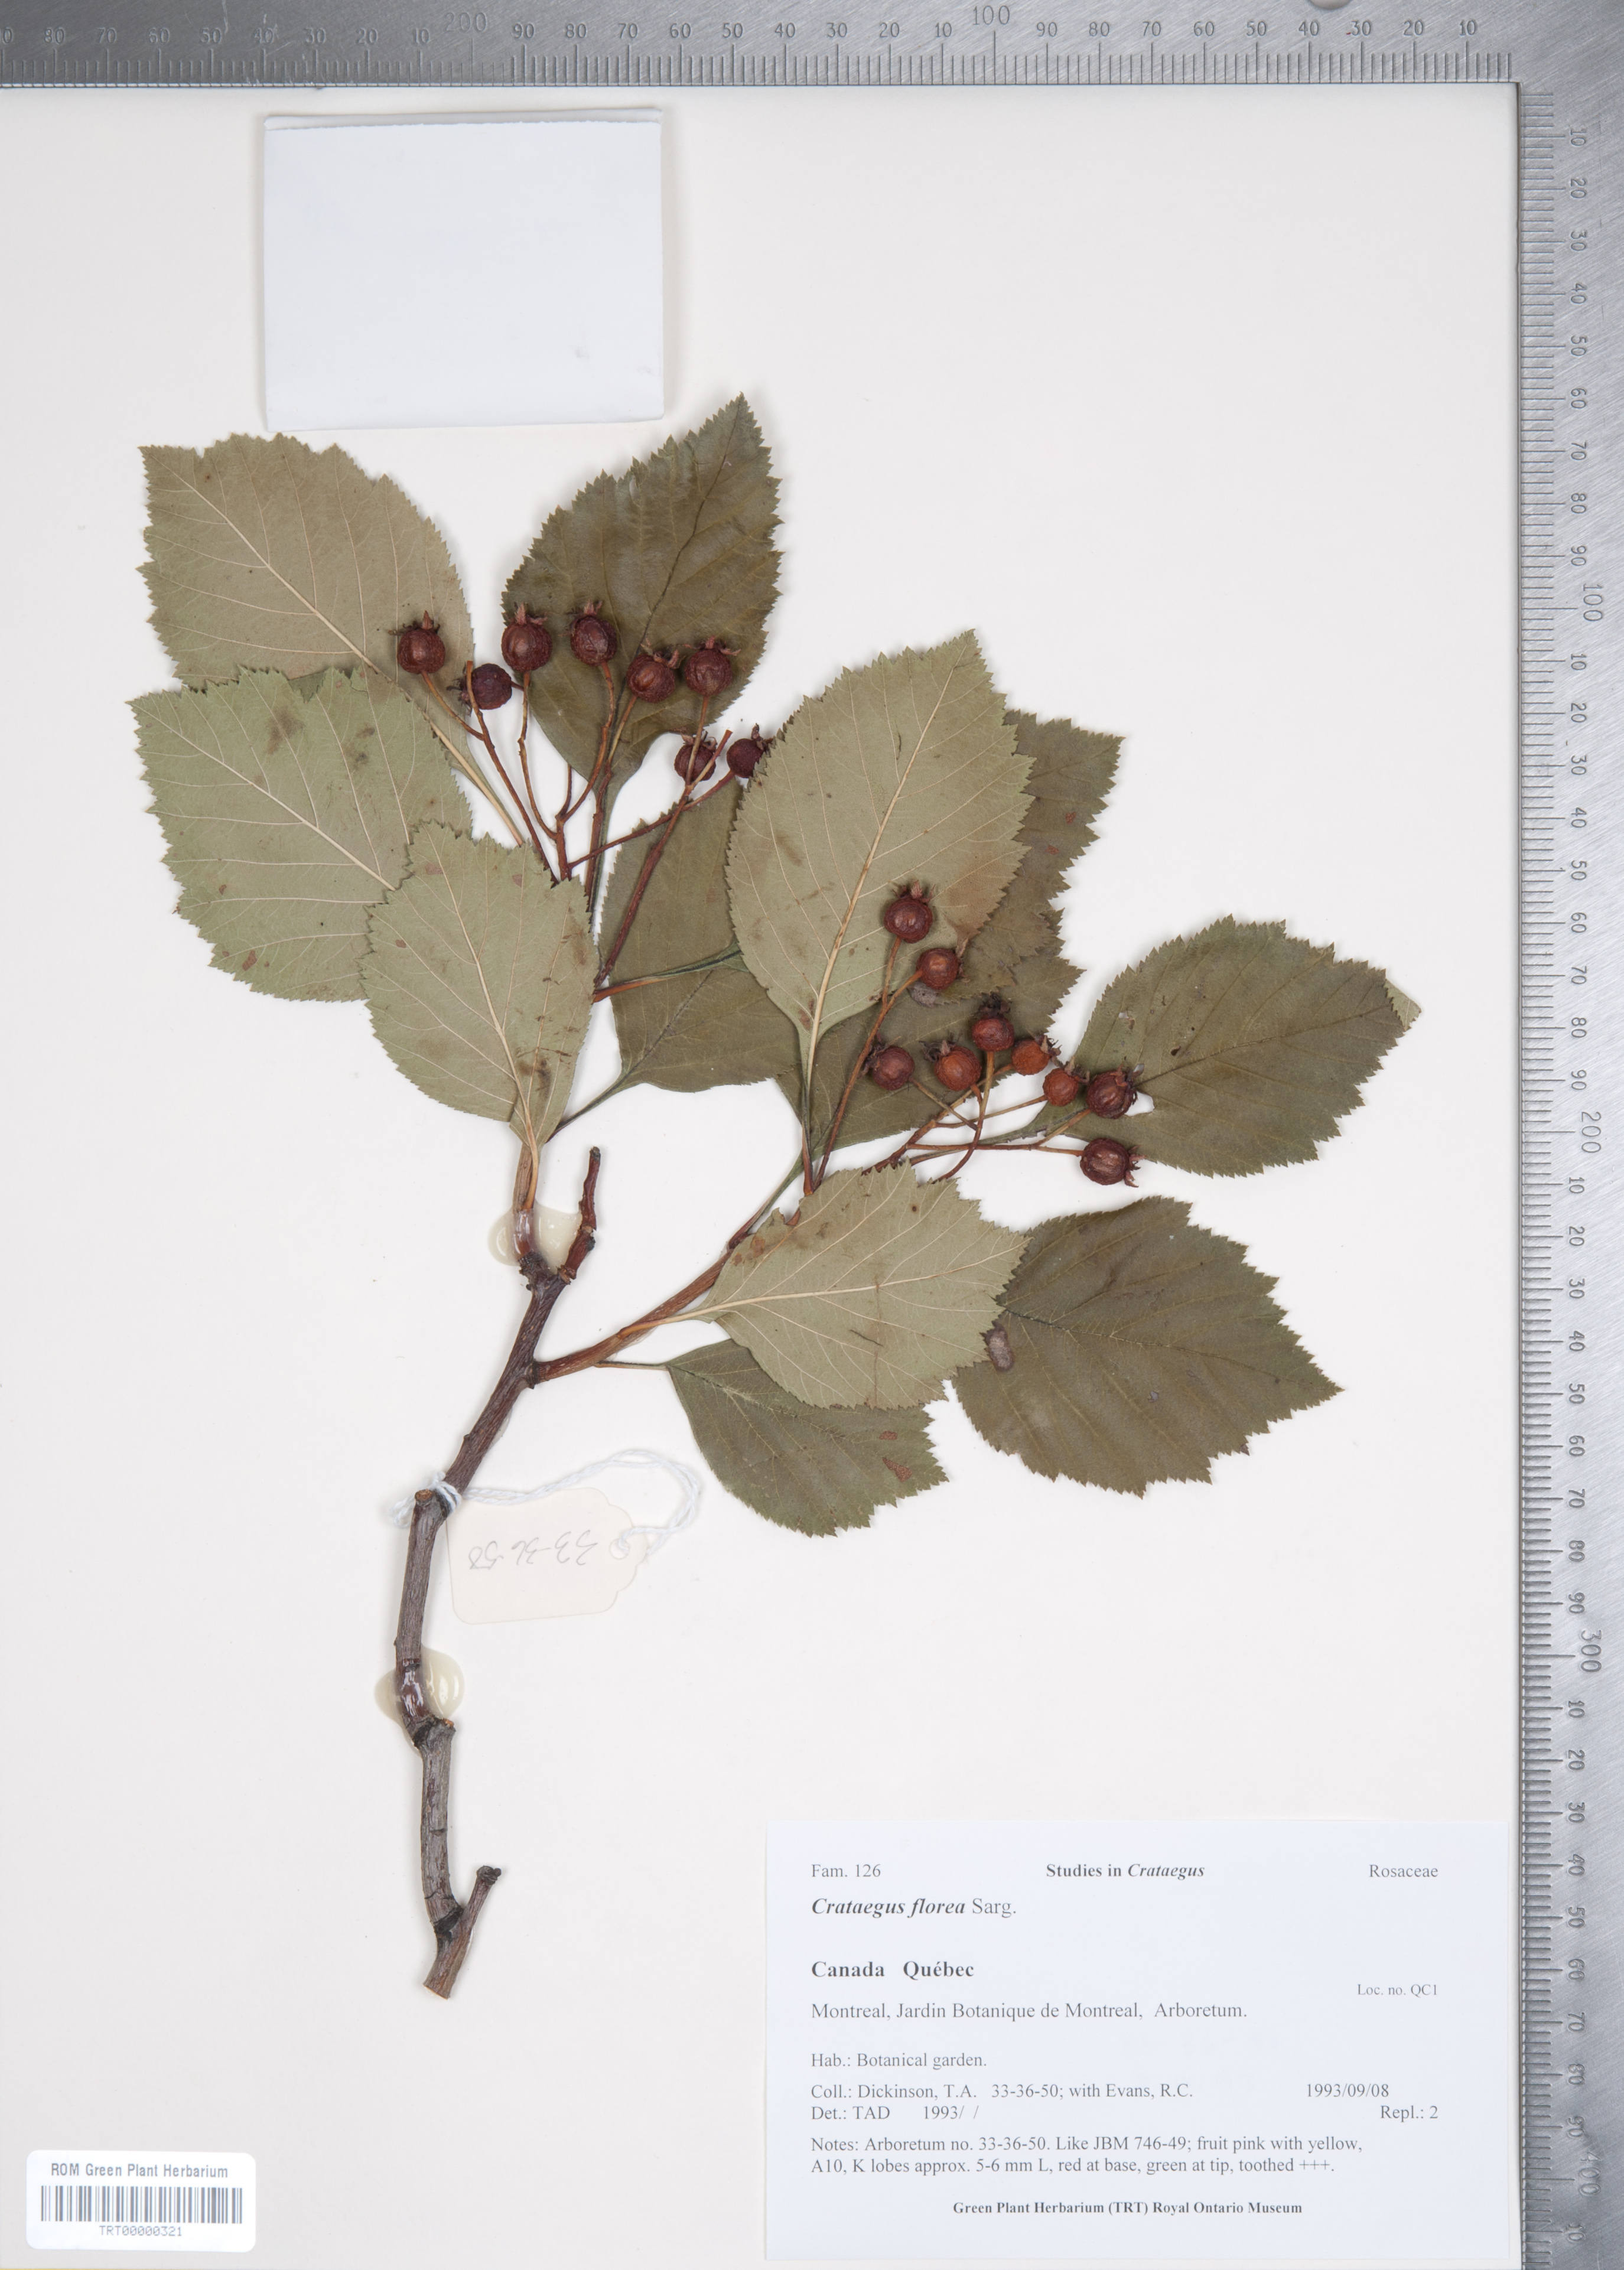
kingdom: Plantae
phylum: Tracheophyta
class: Magnoliopsida
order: Rosales
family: Rosaceae
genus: Crataegus
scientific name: Crataegus florea
